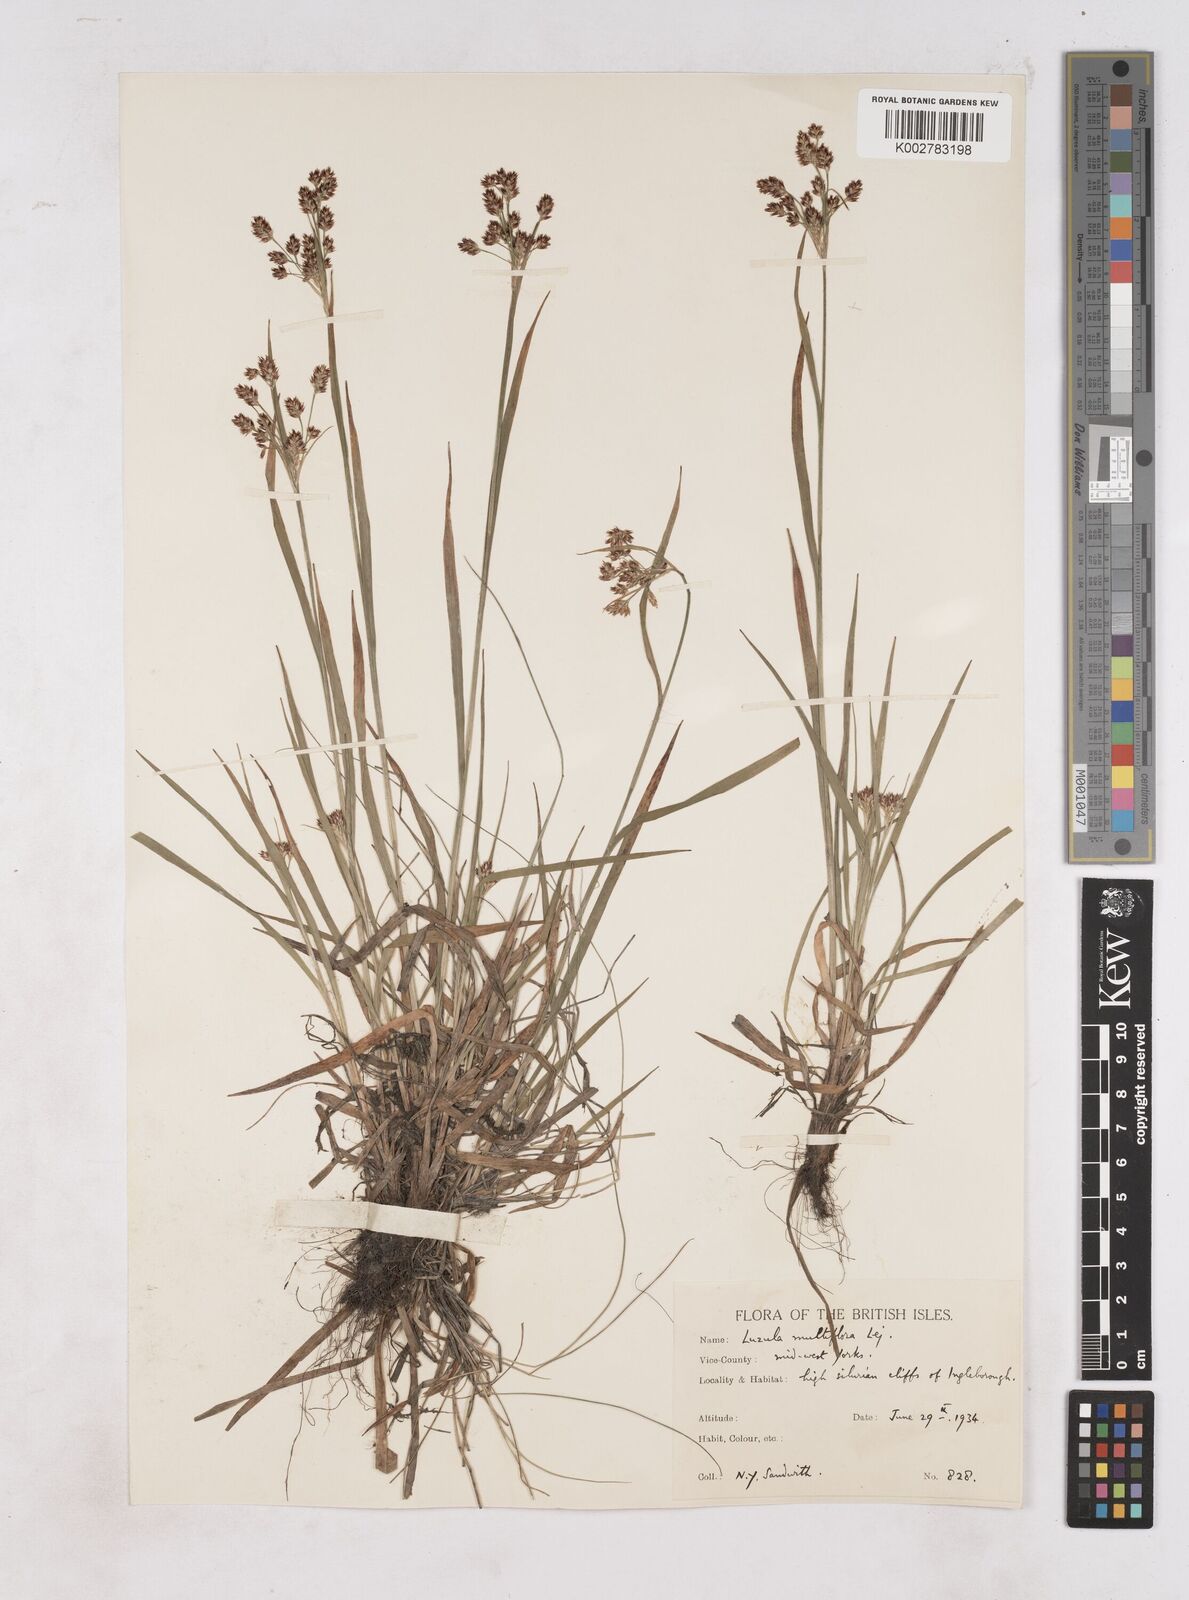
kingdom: Plantae
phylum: Tracheophyta
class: Liliopsida
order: Poales
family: Juncaceae
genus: Luzula
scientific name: Luzula multiflora
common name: Heath wood-rush
